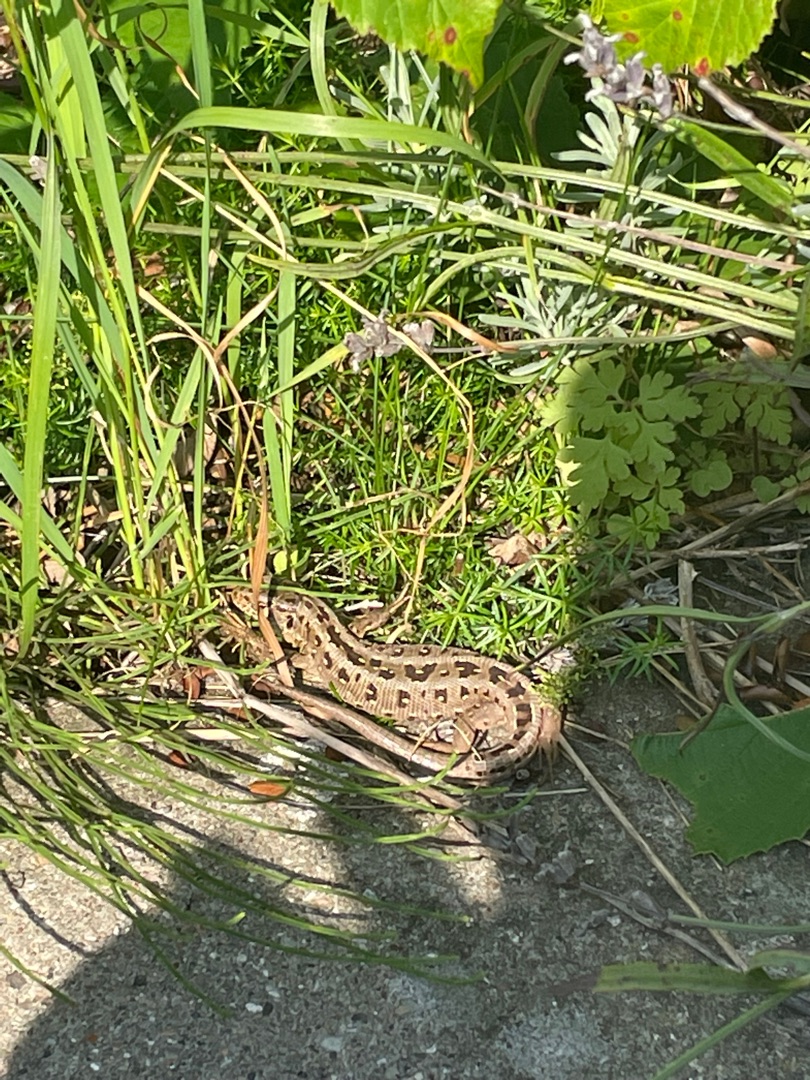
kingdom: Animalia
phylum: Chordata
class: Squamata
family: Lacertidae
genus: Lacerta
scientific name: Lacerta agilis
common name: Markfirben
